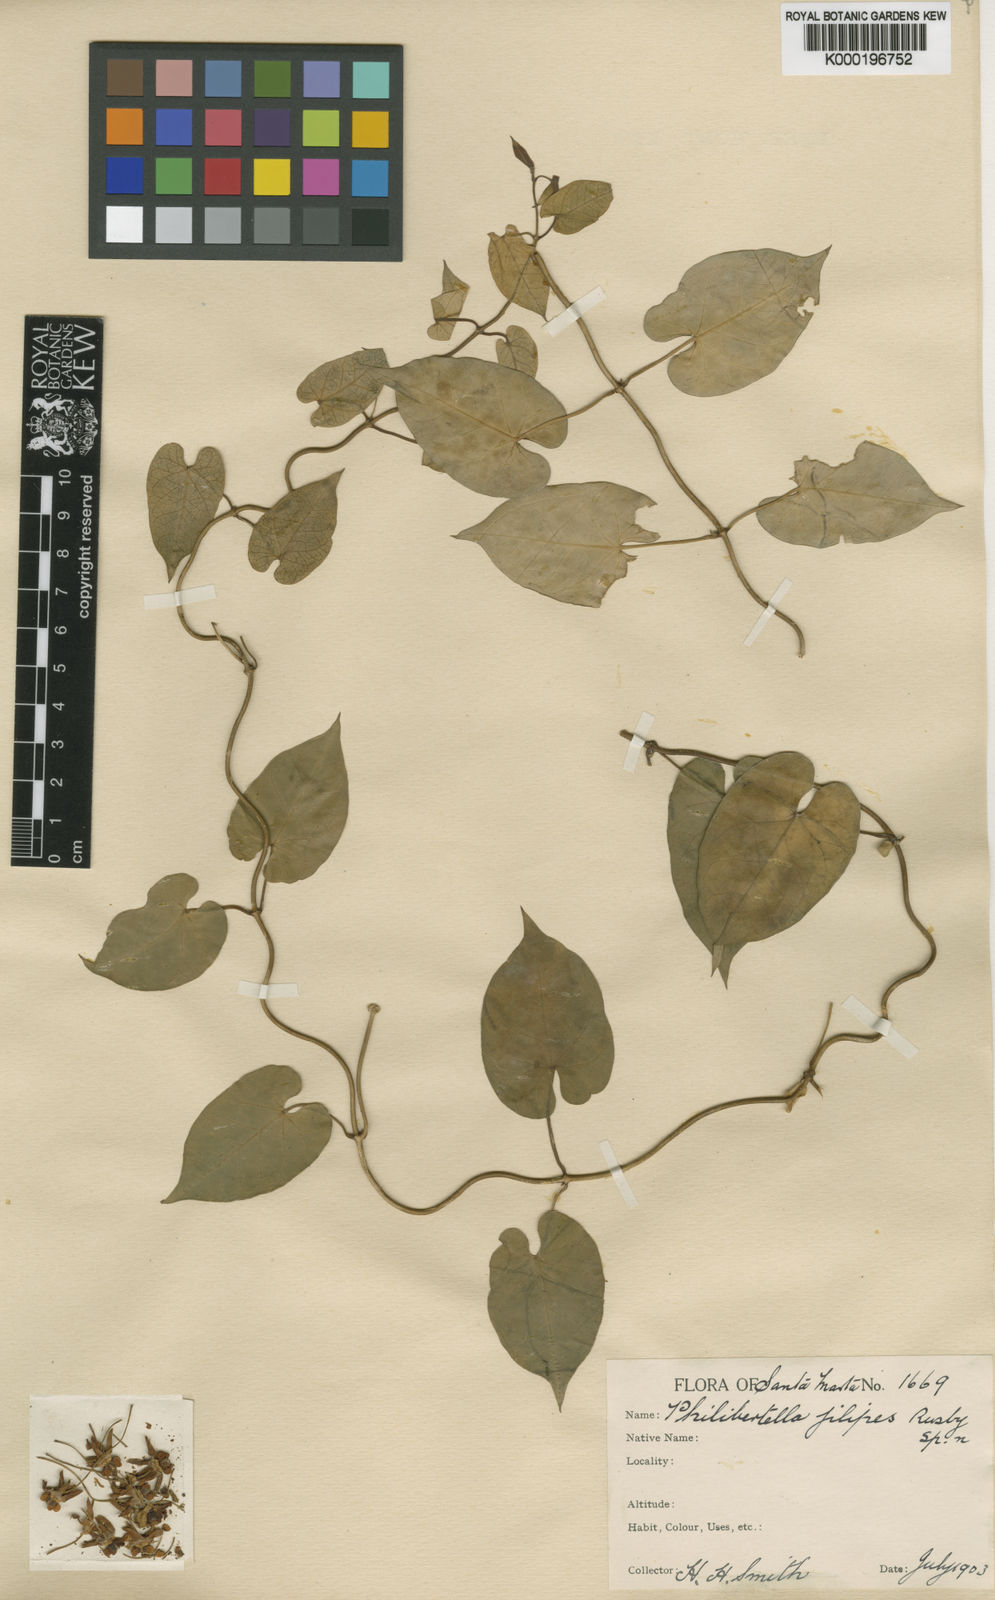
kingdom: Plantae
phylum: Tracheophyta
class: Magnoliopsida
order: Gentianales
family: Apocynaceae
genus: Funastrum
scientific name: Funastrum
